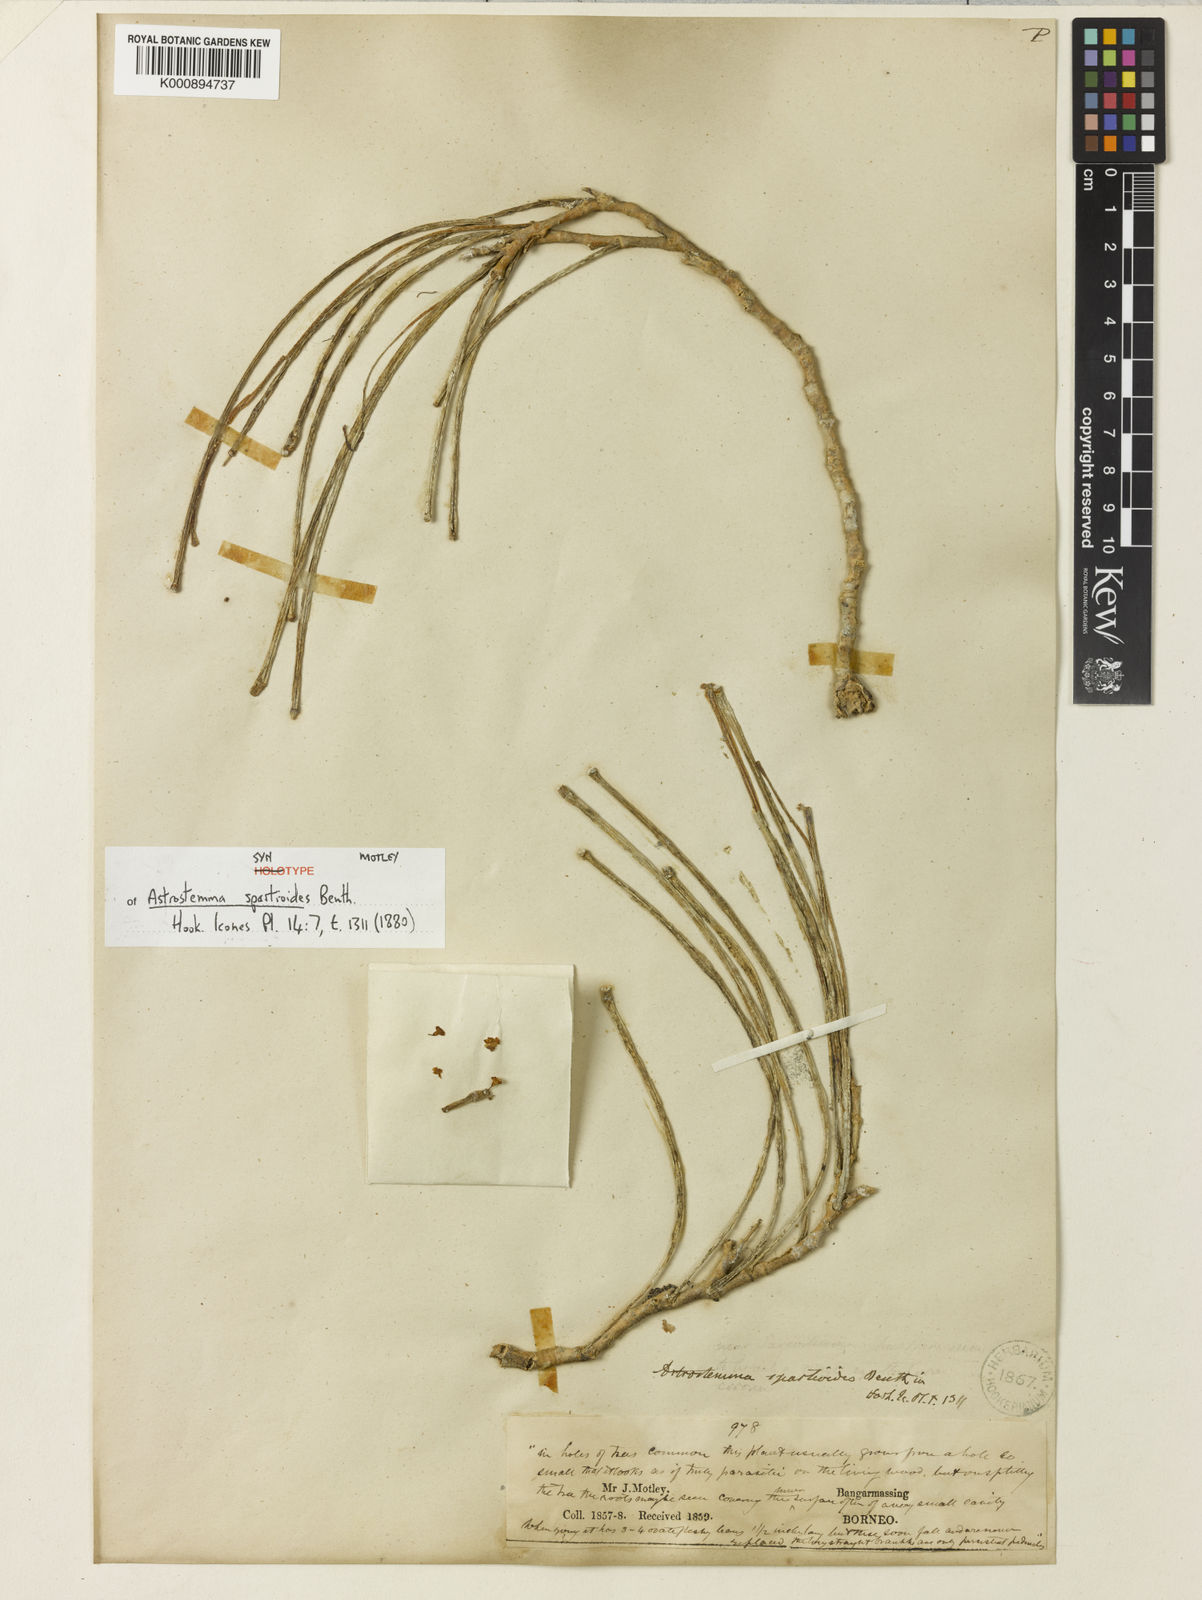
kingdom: Plantae
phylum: Tracheophyta
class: Magnoliopsida
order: Gentianales
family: Apocynaceae
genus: Hoya
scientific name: Hoya spartioides
